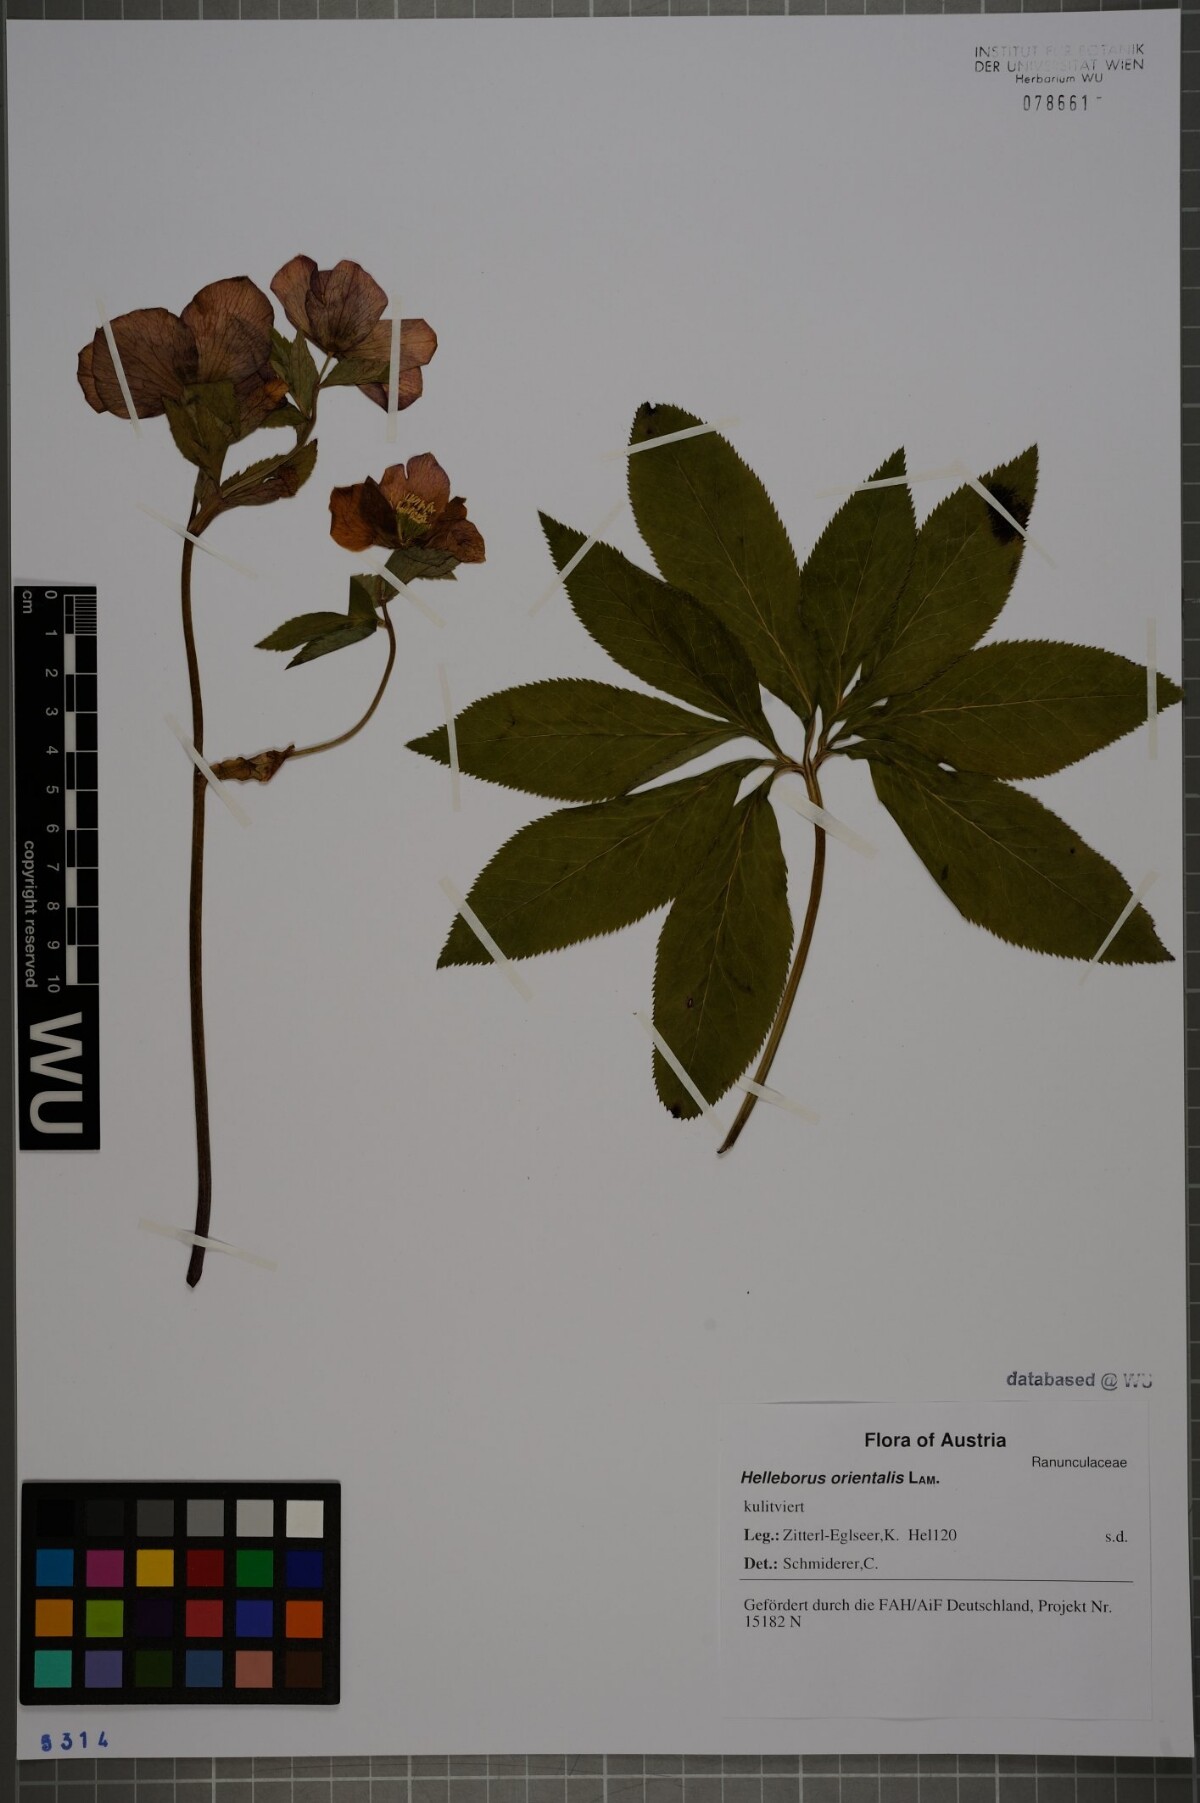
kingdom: Plantae
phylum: Tracheophyta
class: Magnoliopsida
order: Ranunculales
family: Ranunculaceae
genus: Helleborus
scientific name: Helleborus orientalis
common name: Lenten-rose
